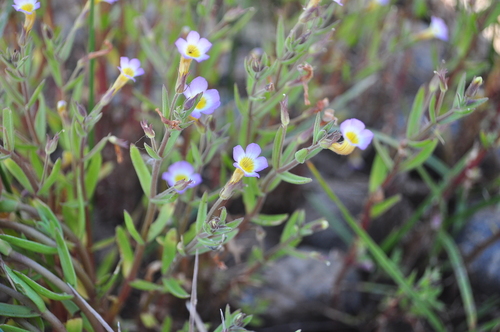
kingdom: Plantae
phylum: Tracheophyta
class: Magnoliopsida
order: Lamiales
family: Plantaginaceae
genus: Gratiola
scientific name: Gratiola linifolia
